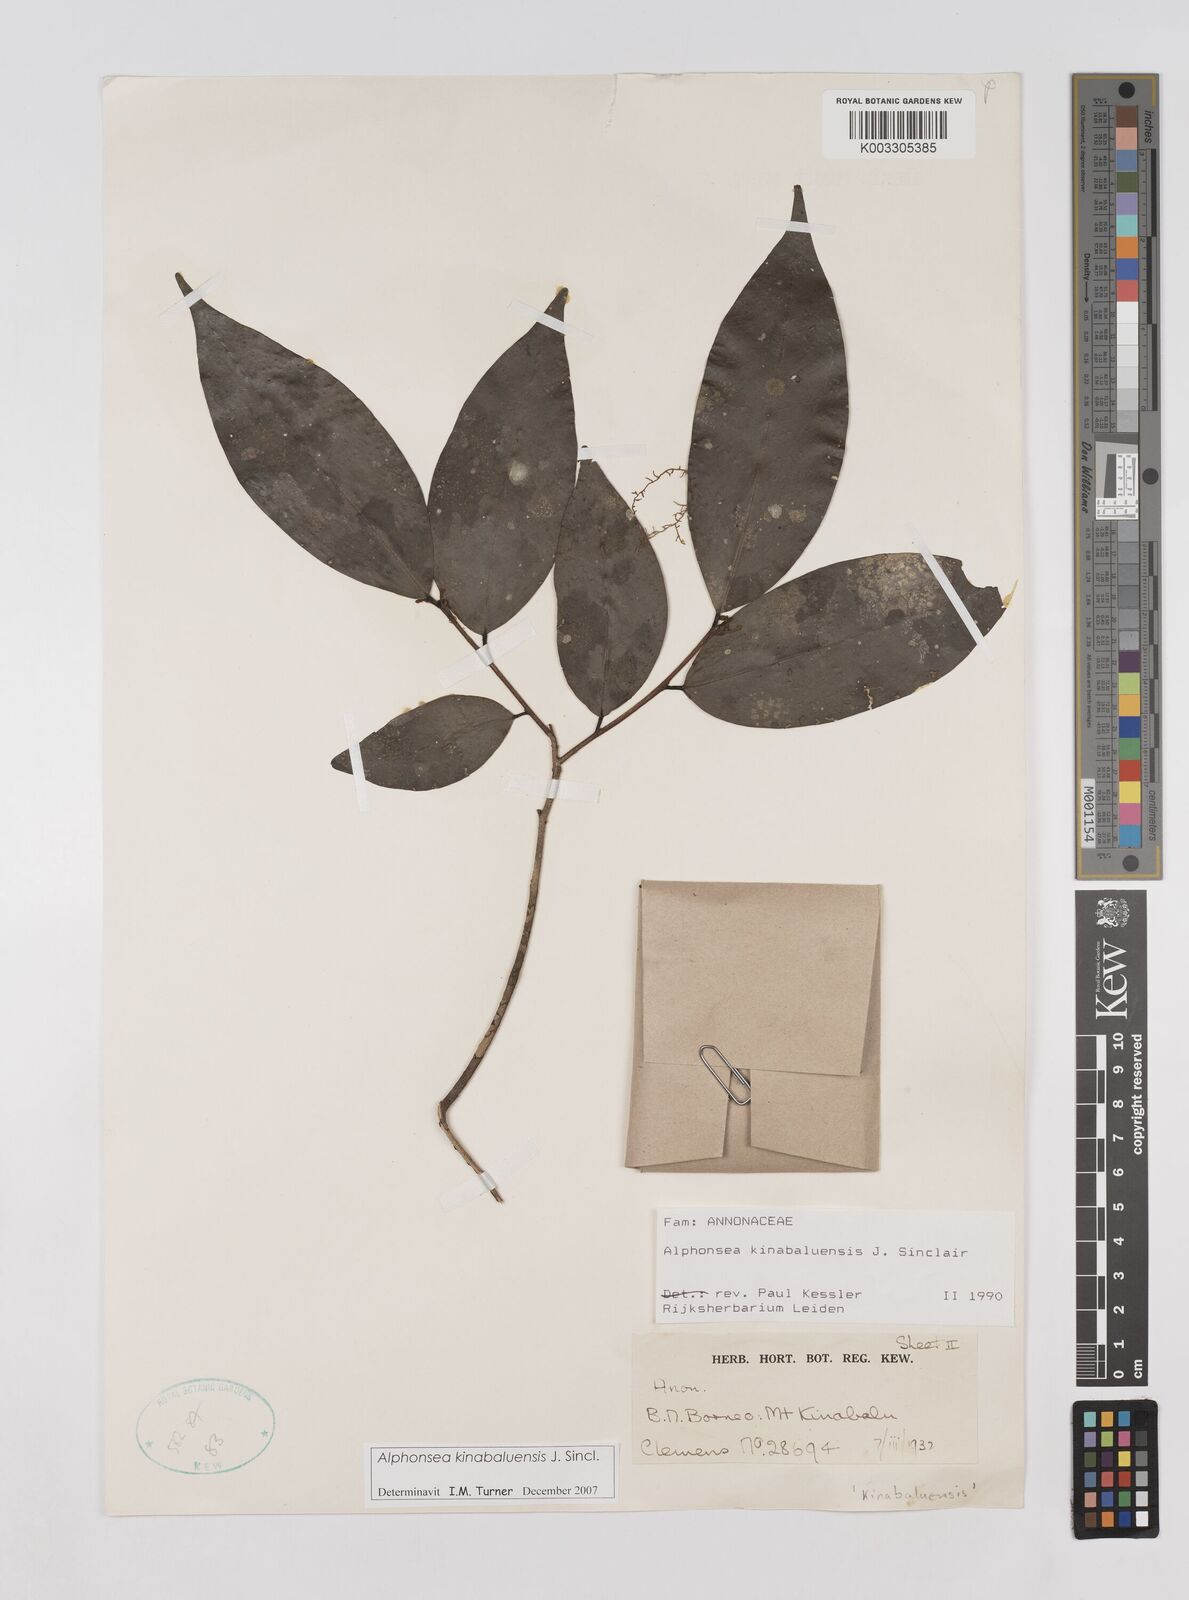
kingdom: Plantae
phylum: Tracheophyta
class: Magnoliopsida
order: Magnoliales
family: Annonaceae
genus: Alphonsea
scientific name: Alphonsea kinabaluensis
